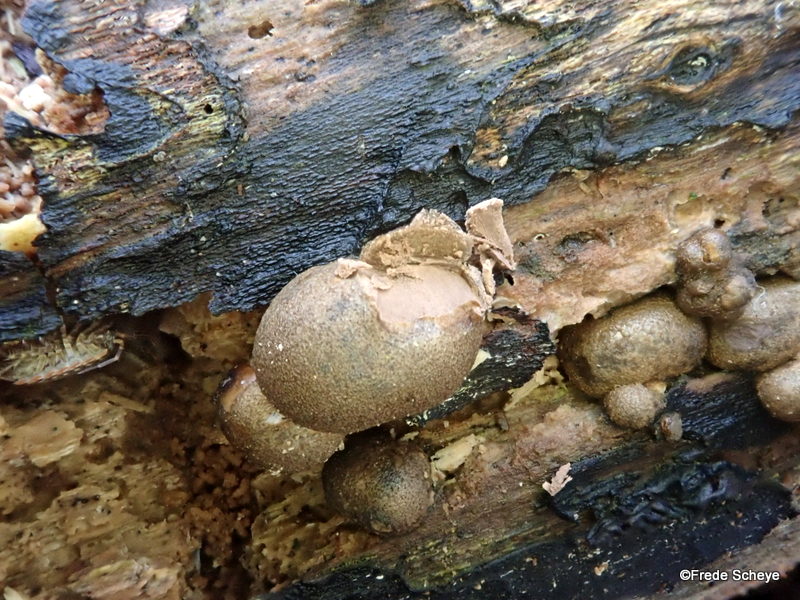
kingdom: Protozoa
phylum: Mycetozoa
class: Myxomycetes
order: Cribrariales
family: Tubiferaceae
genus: Lycogala
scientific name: Lycogala epidendrum
